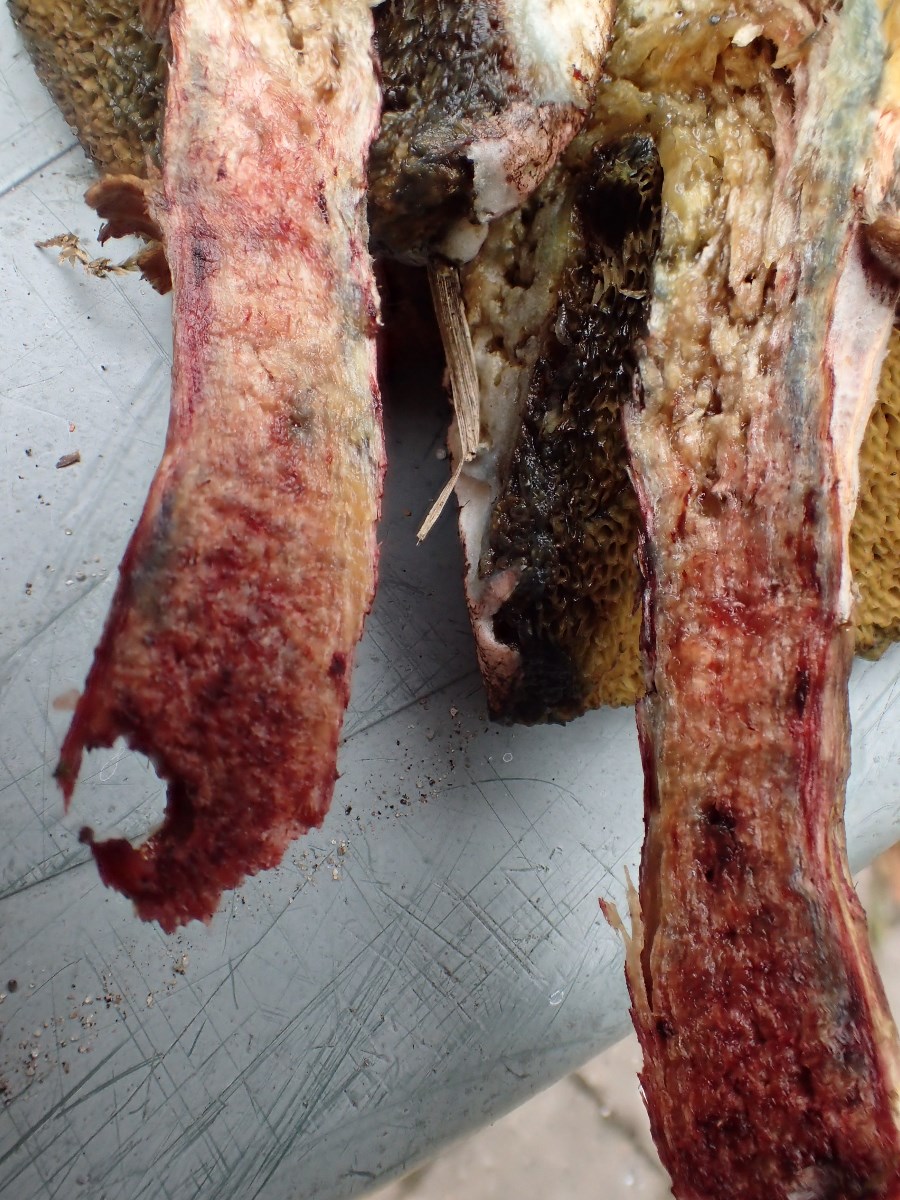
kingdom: Fungi
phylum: Basidiomycota
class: Agaricomycetes
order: Boletales
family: Boletaceae
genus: Hortiboletus
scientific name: Hortiboletus bubalinus
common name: aurora-rørhat
